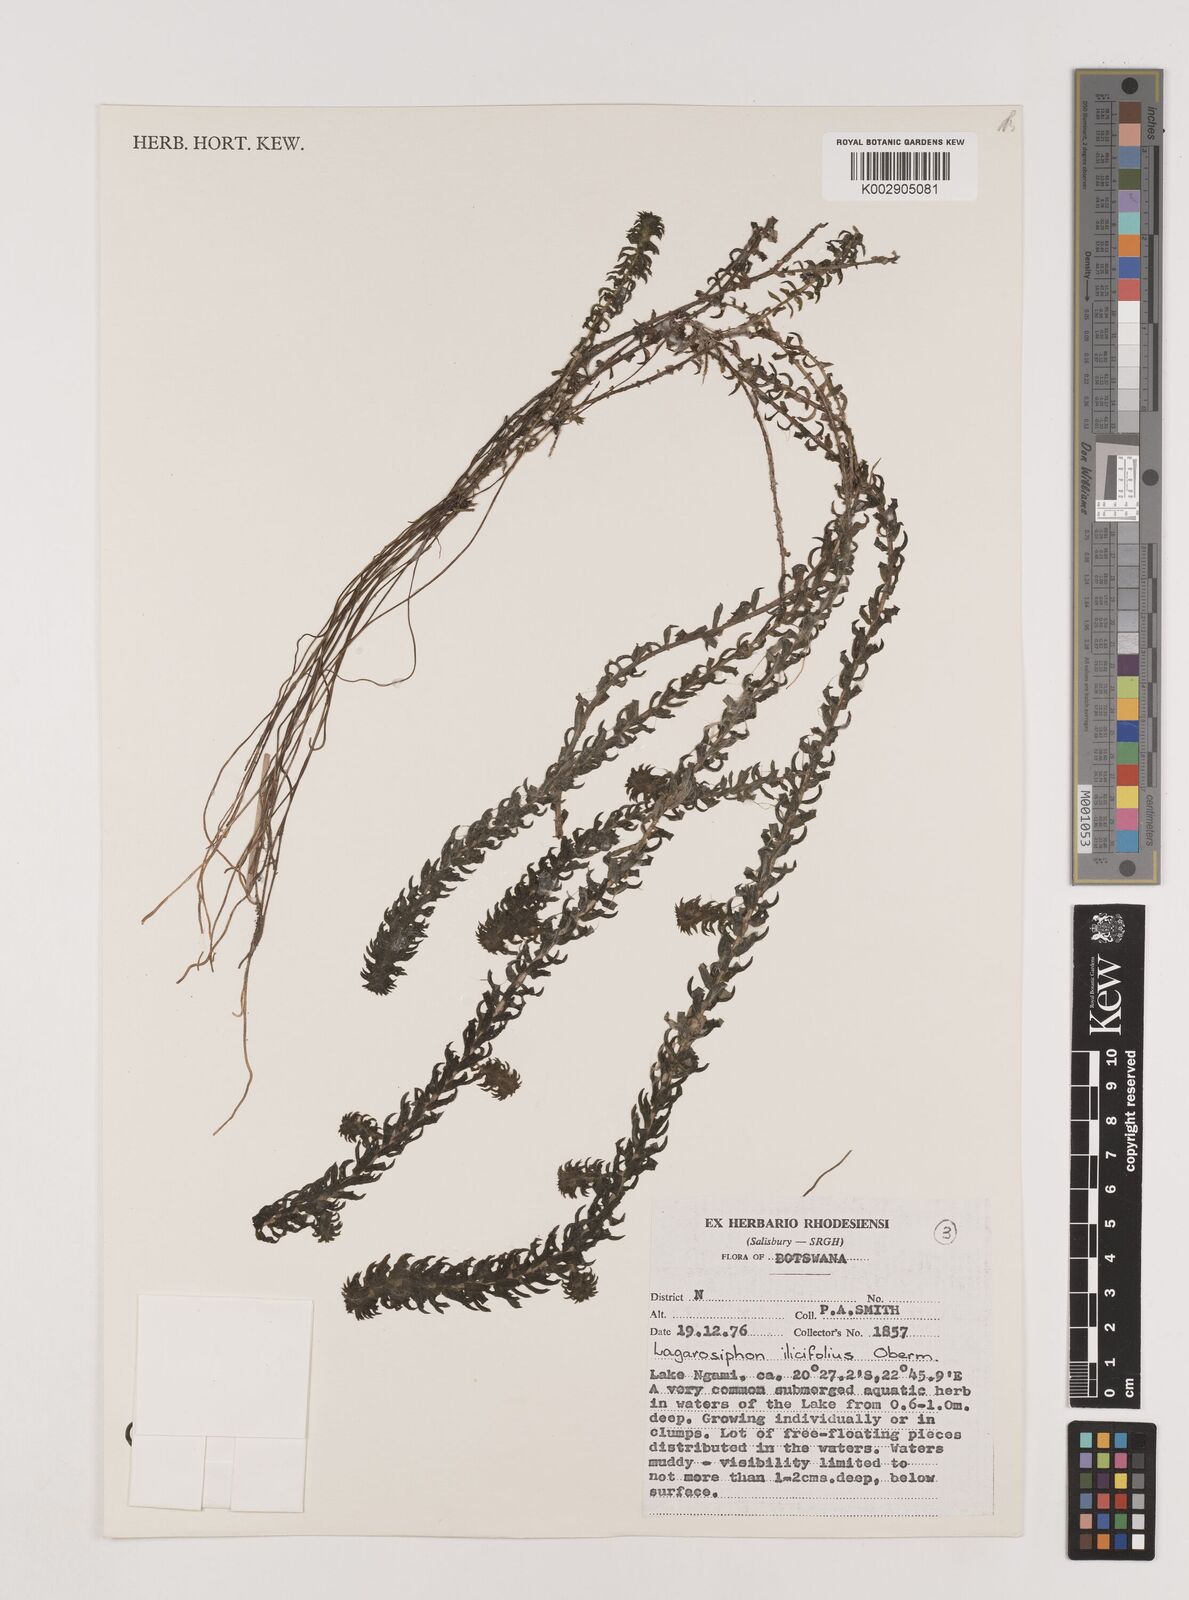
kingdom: Plantae
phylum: Tracheophyta
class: Liliopsida
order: Alismatales
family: Hydrocharitaceae
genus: Lagarosiphon
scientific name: Lagarosiphon ilicifolius
